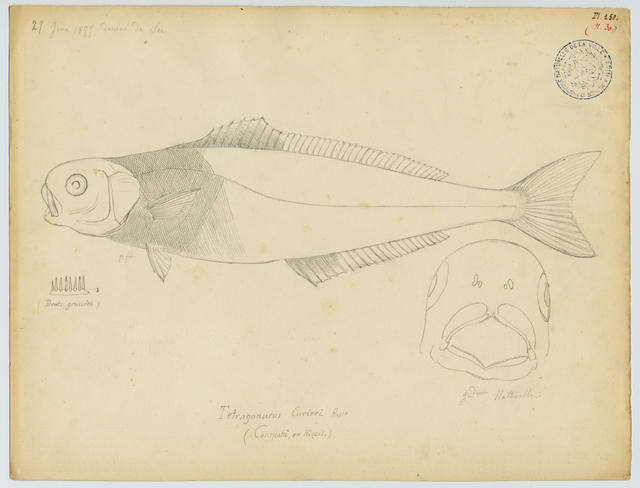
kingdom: Animalia
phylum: Chordata
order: Perciformes
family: Centrolophidae
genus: Centrolophus
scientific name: Centrolophus niger
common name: Blackfish
